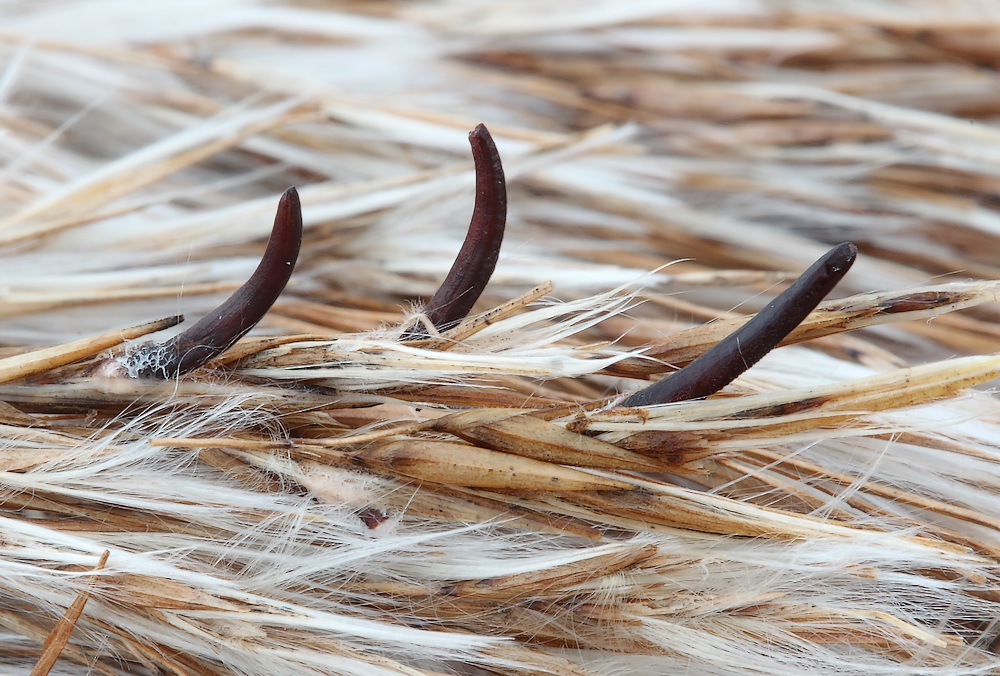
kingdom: Fungi
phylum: Ascomycota
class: Sordariomycetes
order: Hypocreales
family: Clavicipitaceae
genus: Claviceps
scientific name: Claviceps arundinis
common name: tagrør-meldrøjer
